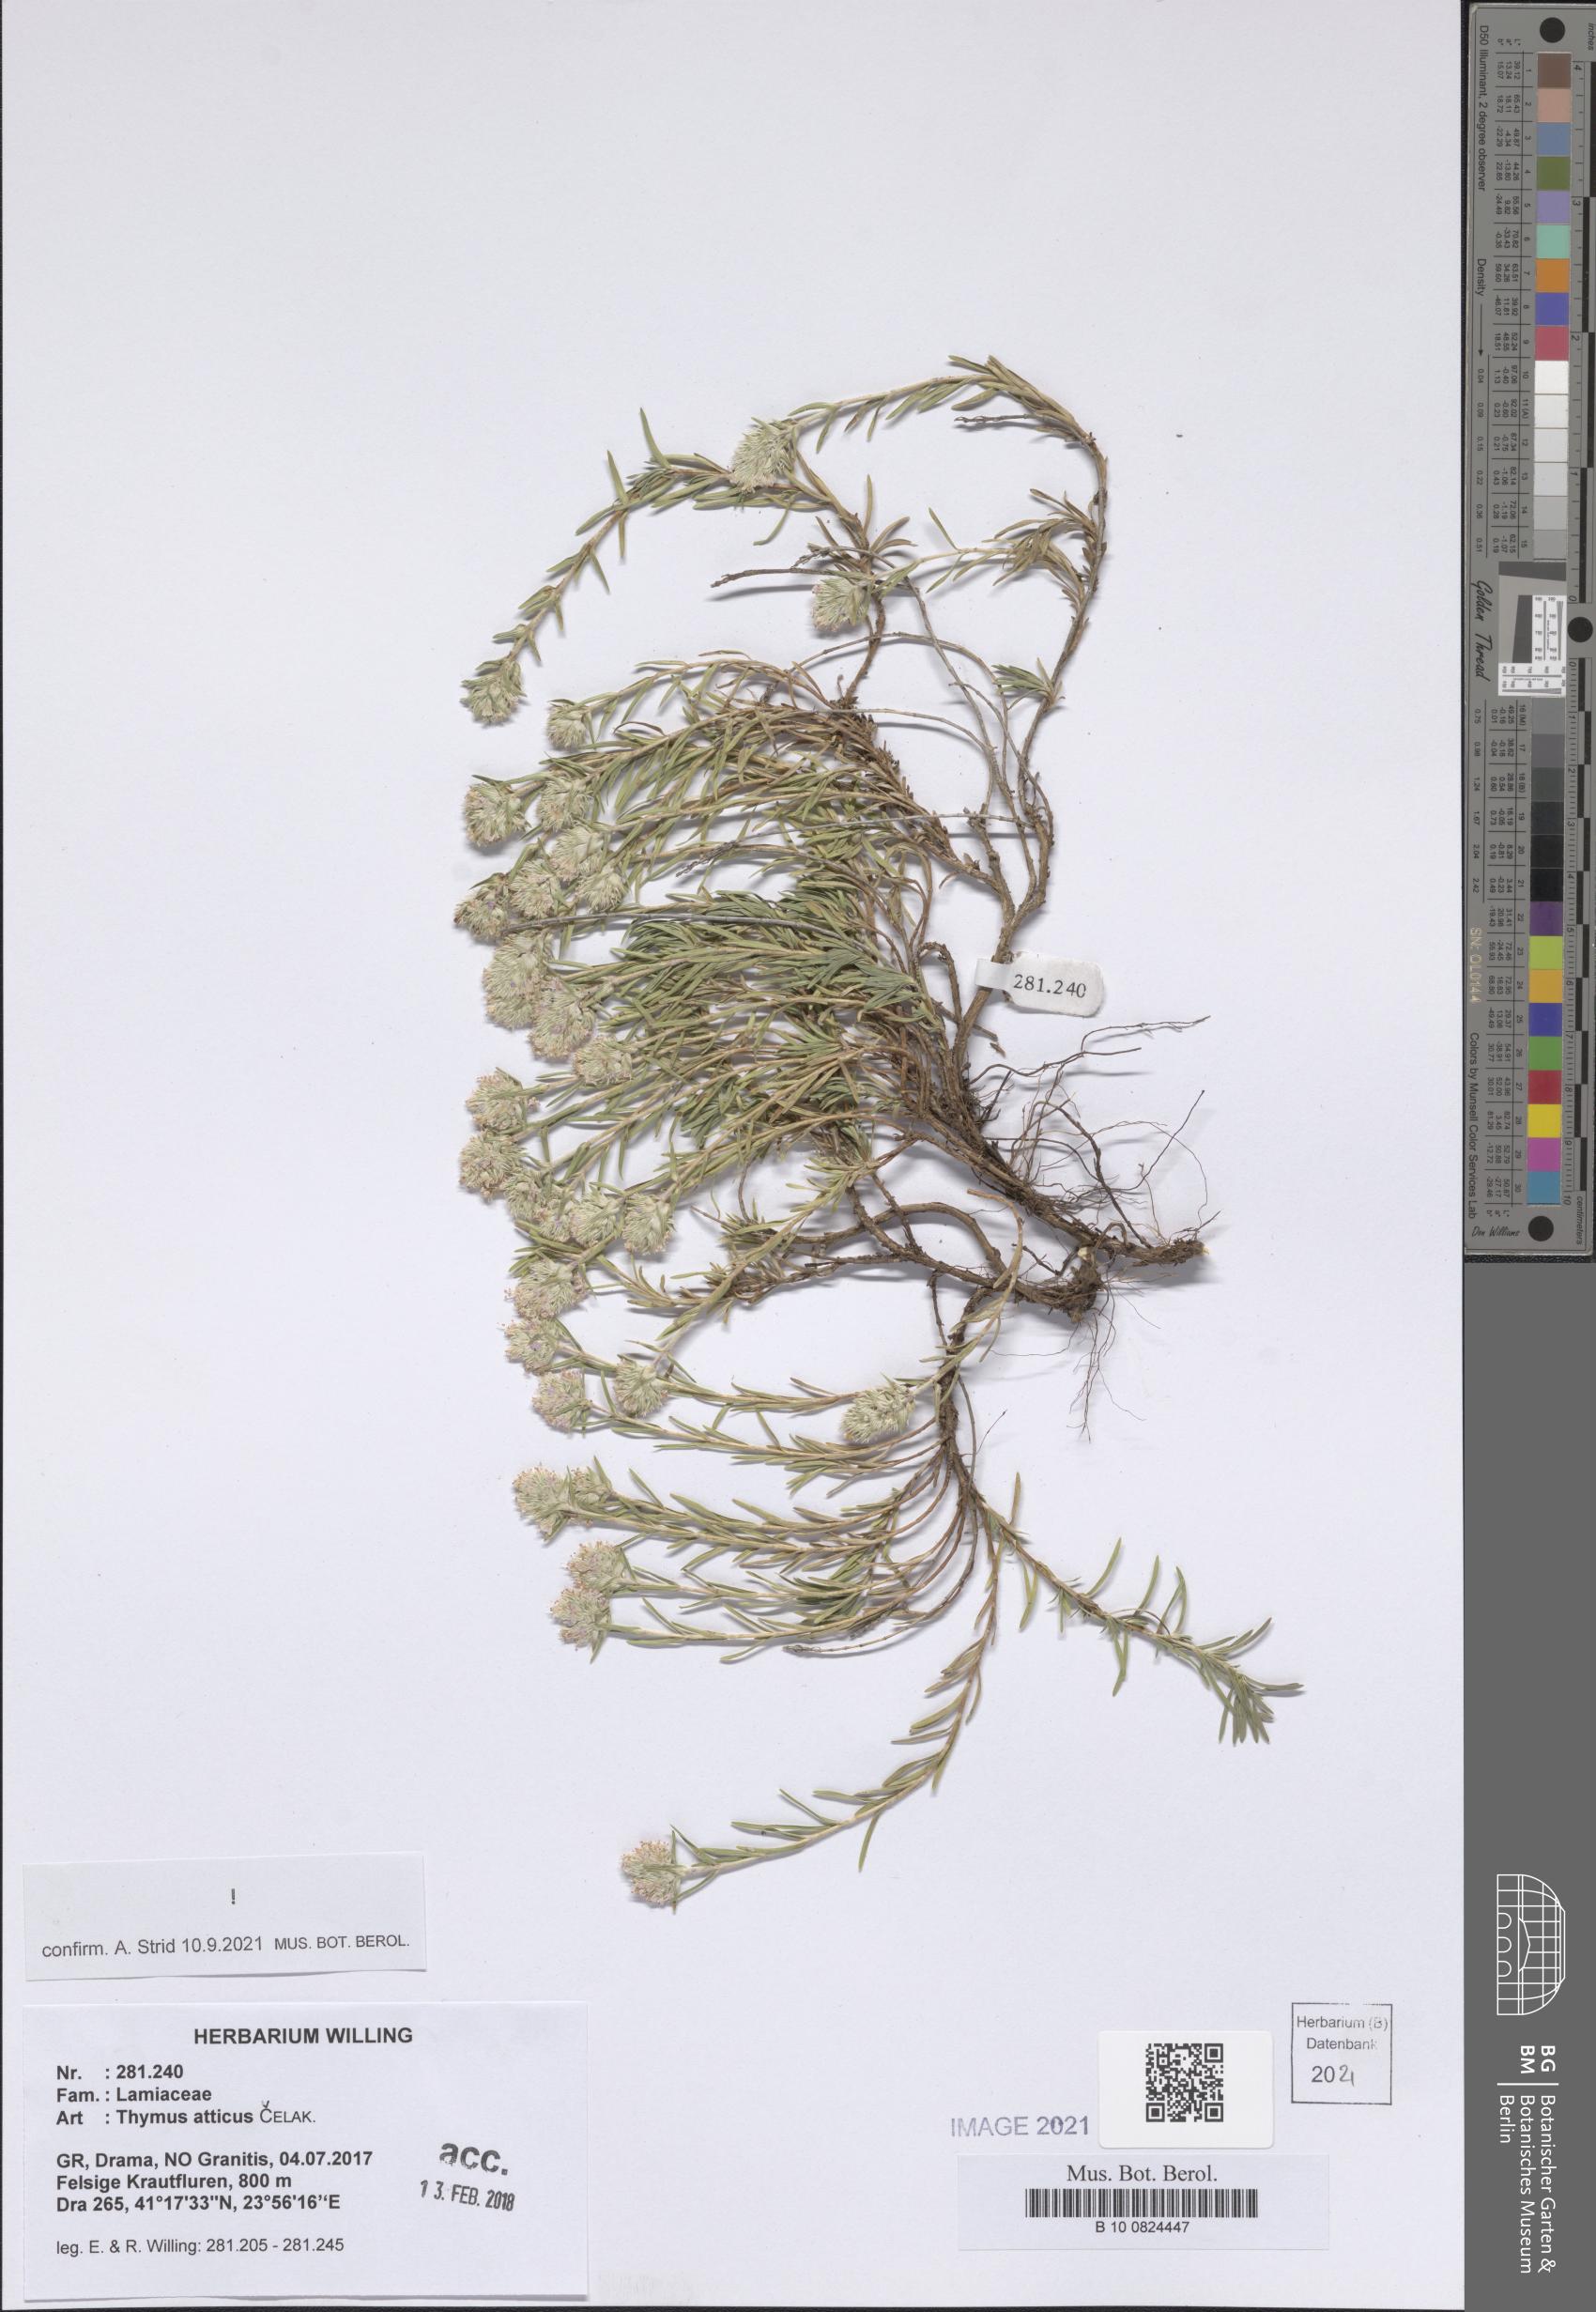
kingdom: Plantae
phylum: Tracheophyta
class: Magnoliopsida
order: Lamiales
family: Lamiaceae
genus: Thymus
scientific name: Thymus atticus
